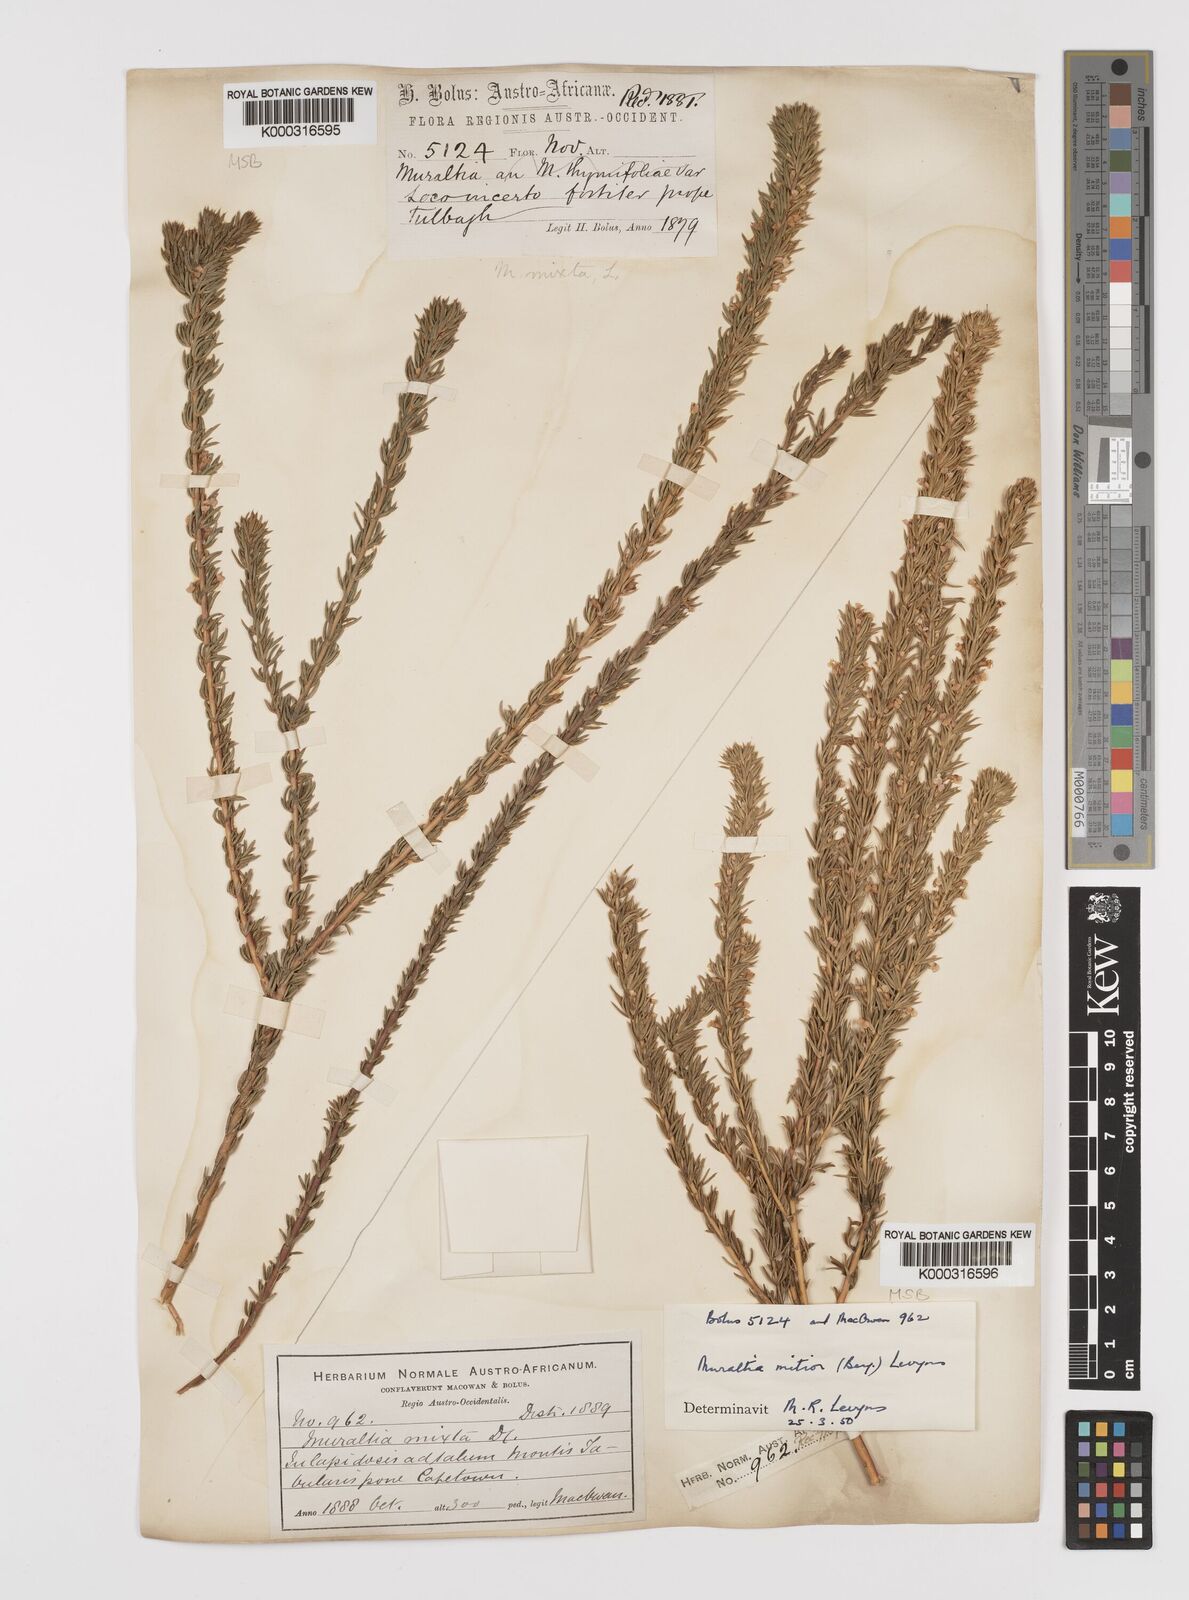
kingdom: Plantae
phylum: Tracheophyta
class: Magnoliopsida
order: Fabales
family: Polygalaceae
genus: Muraltia
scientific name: Muraltia
